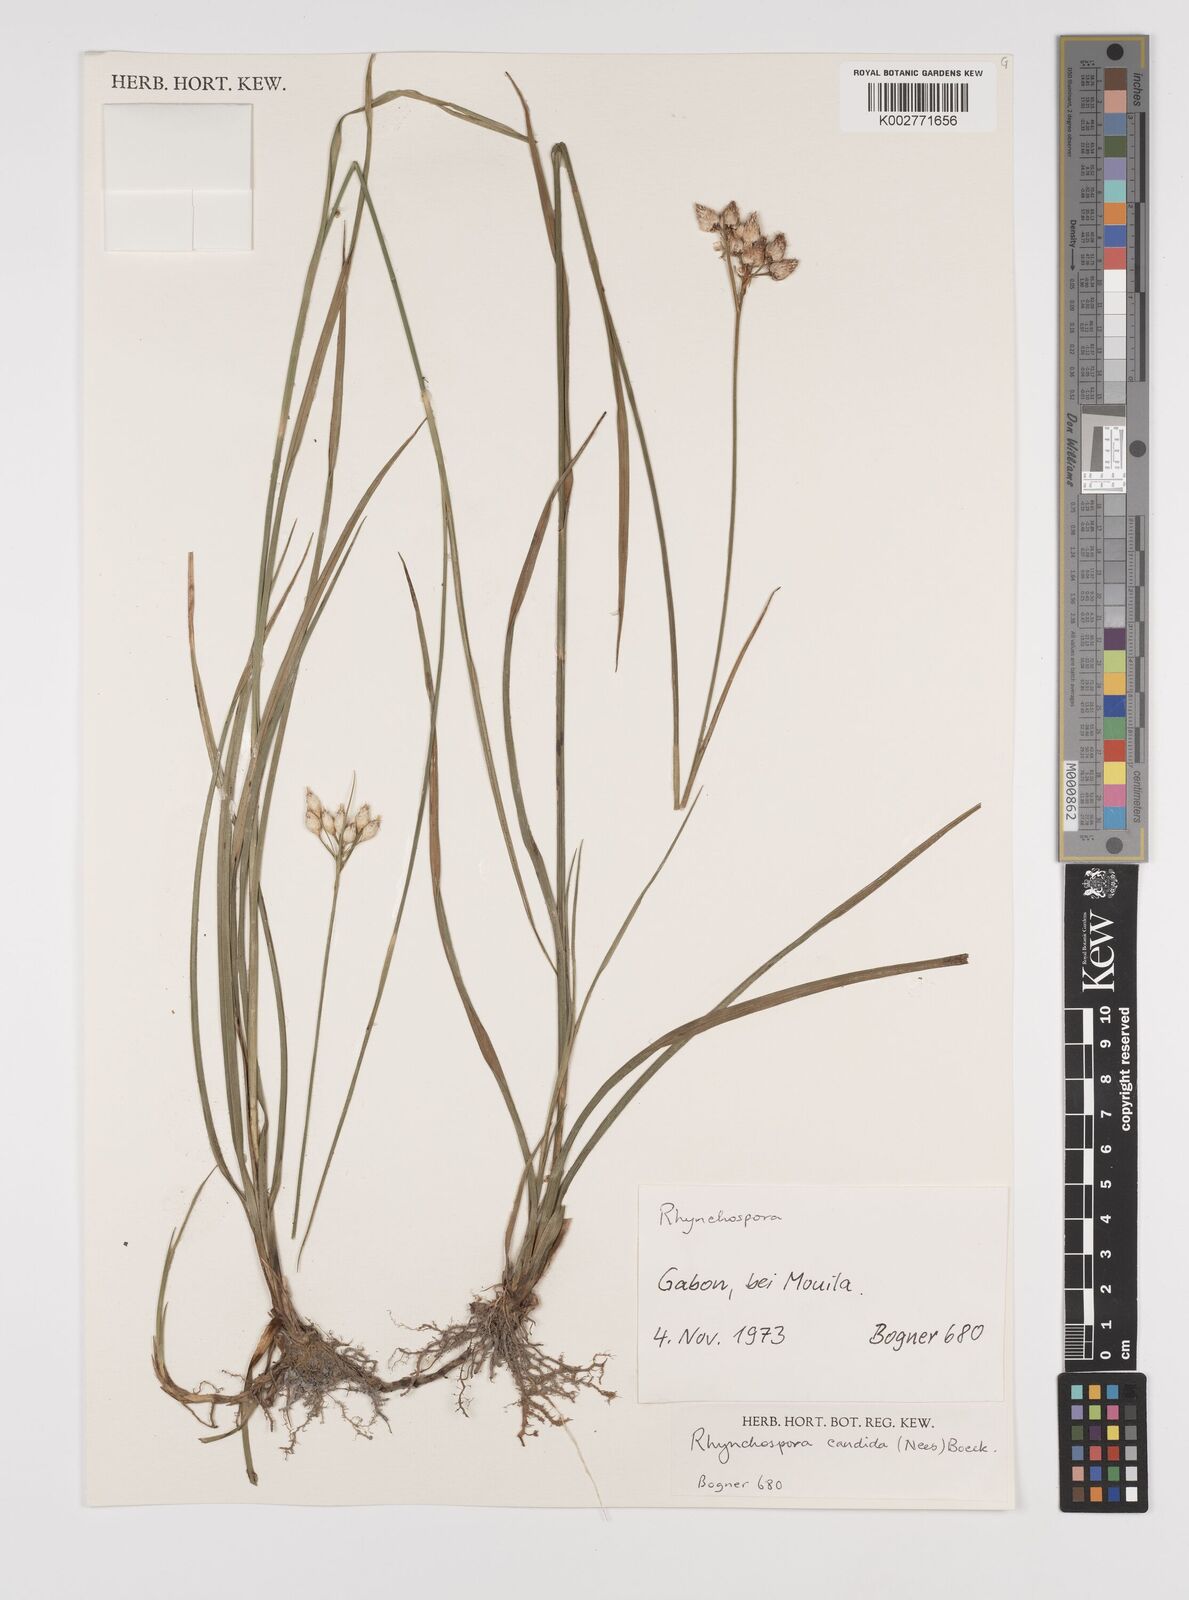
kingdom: Plantae
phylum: Tracheophyta
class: Liliopsida
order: Poales
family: Cyperaceae
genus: Rhynchospora
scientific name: Rhynchospora candida
